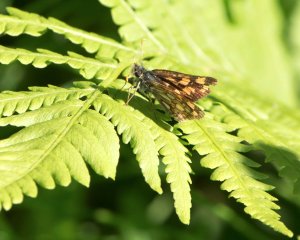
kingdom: Animalia
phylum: Arthropoda
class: Insecta
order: Lepidoptera
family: Hesperiidae
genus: Carterocephalus
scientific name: Carterocephalus palaemon
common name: Chequered Skipper
